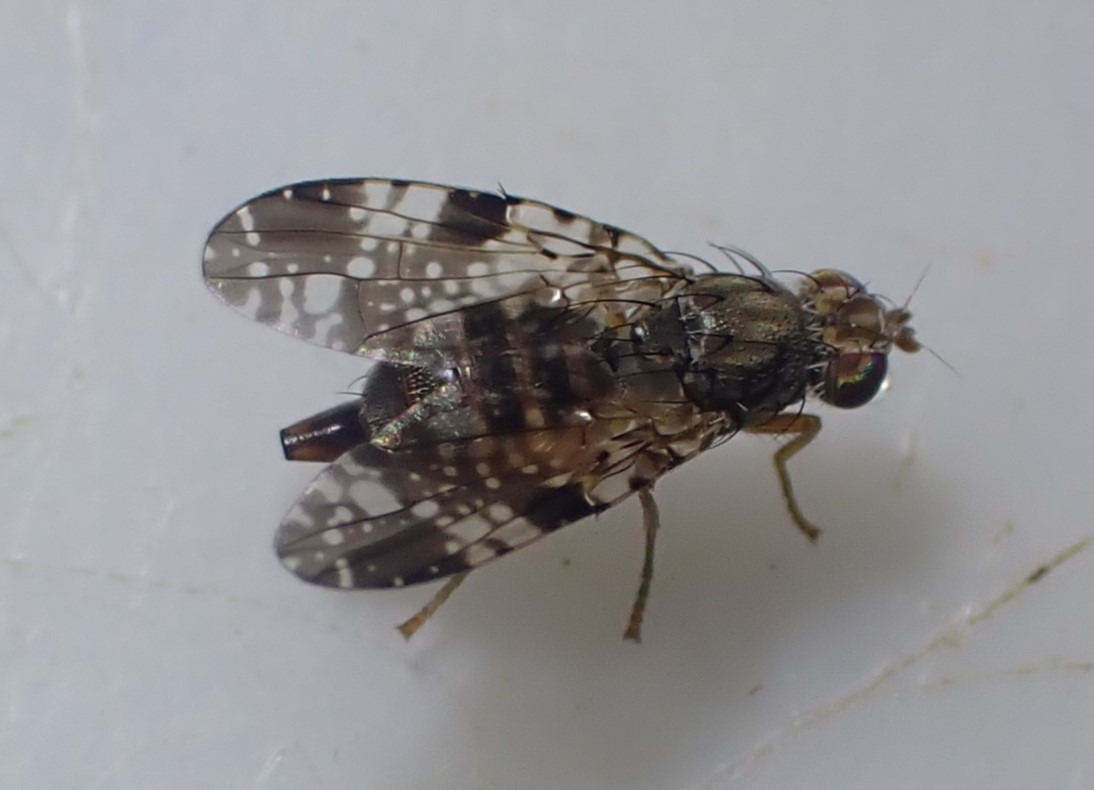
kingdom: Animalia
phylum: Arthropoda
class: Insecta
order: Diptera
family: Tephritidae
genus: Tephritis
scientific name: Tephritis vespertina
